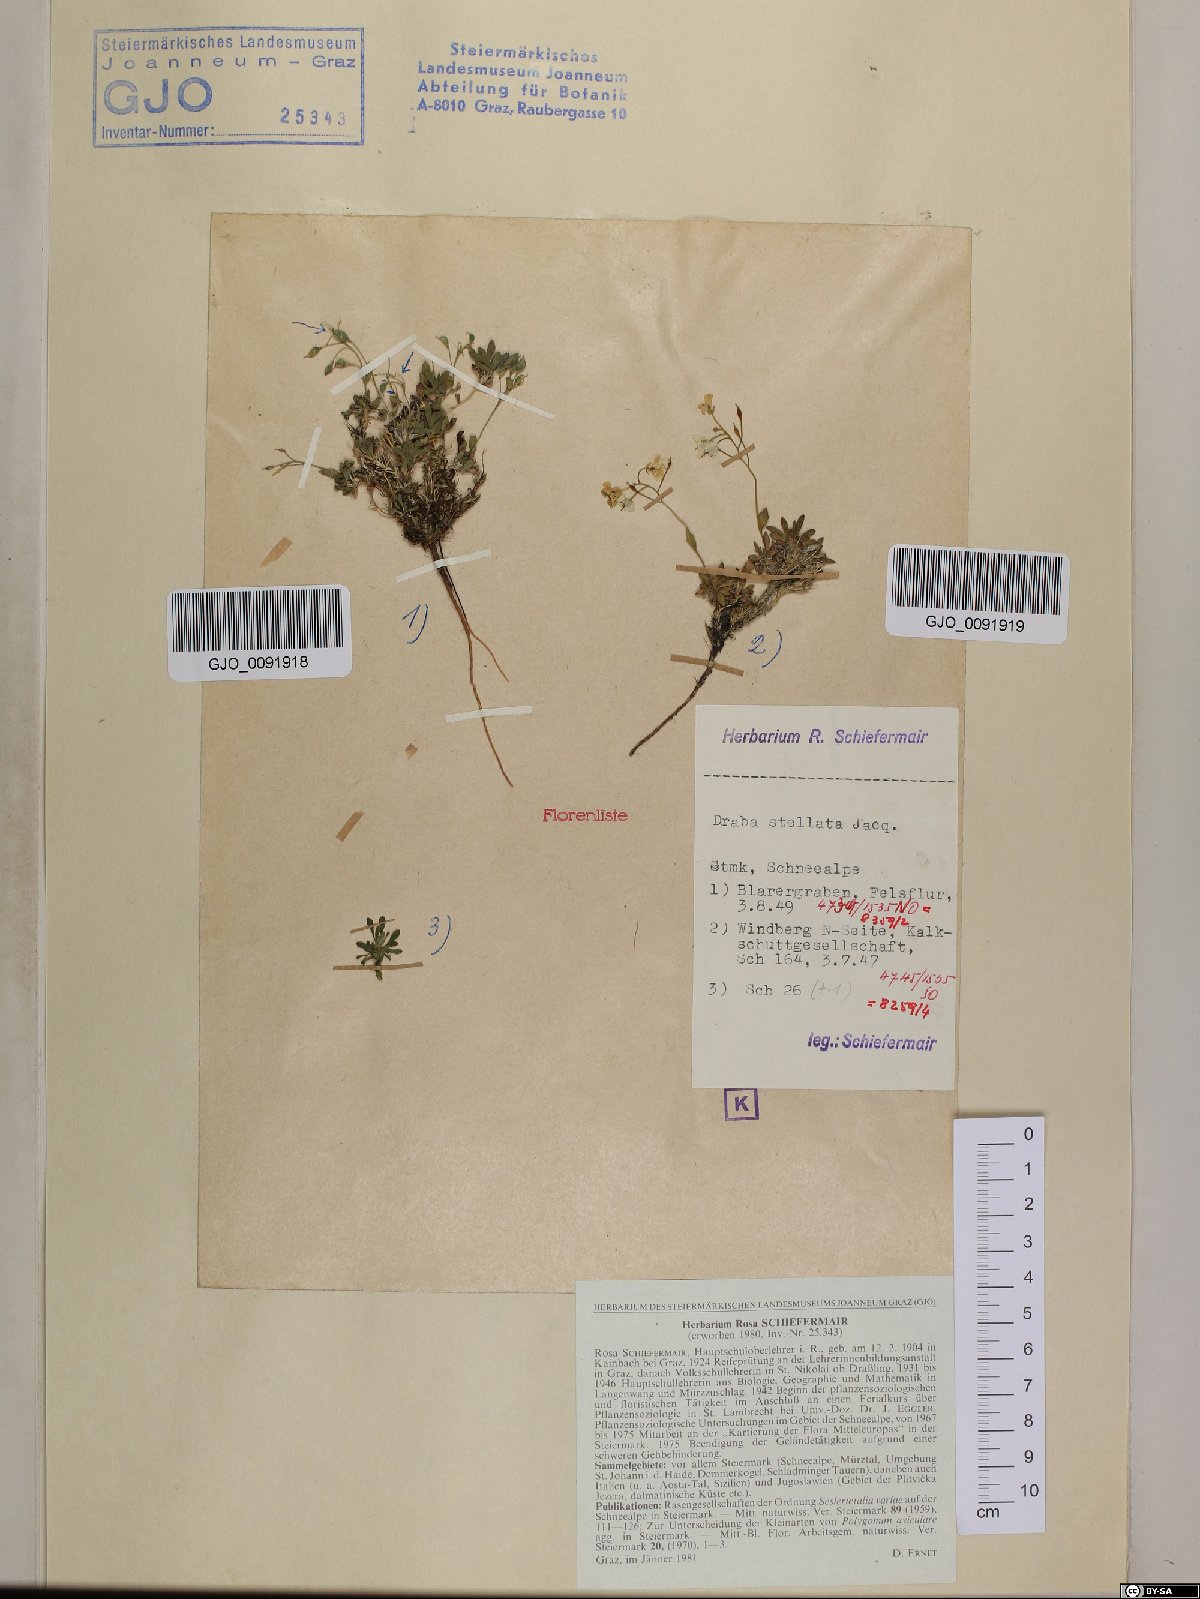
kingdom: Plantae
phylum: Tracheophyta
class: Magnoliopsida
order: Brassicales
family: Brassicaceae
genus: Draba
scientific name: Draba stellata
